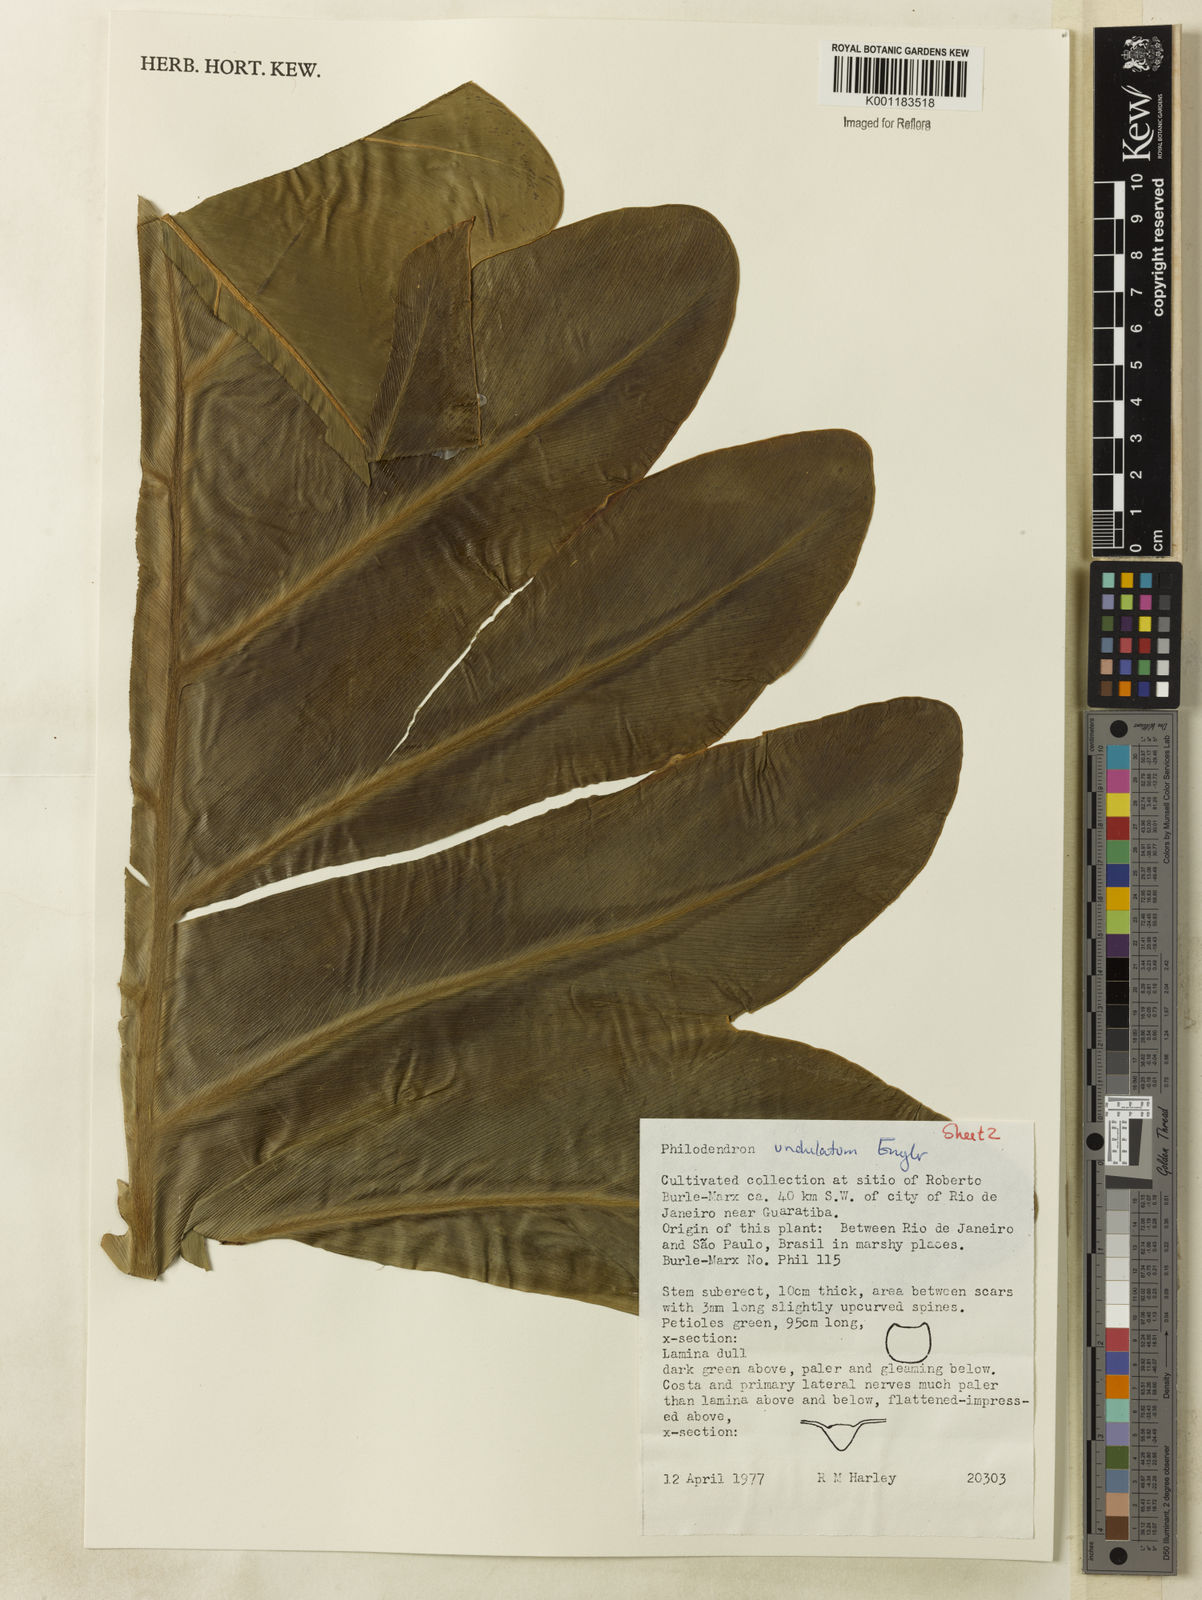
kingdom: Plantae
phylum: Tracheophyta
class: Liliopsida
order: Alismatales
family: Araceae
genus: Thaumatophyllum
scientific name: Thaumatophyllum undulatum
